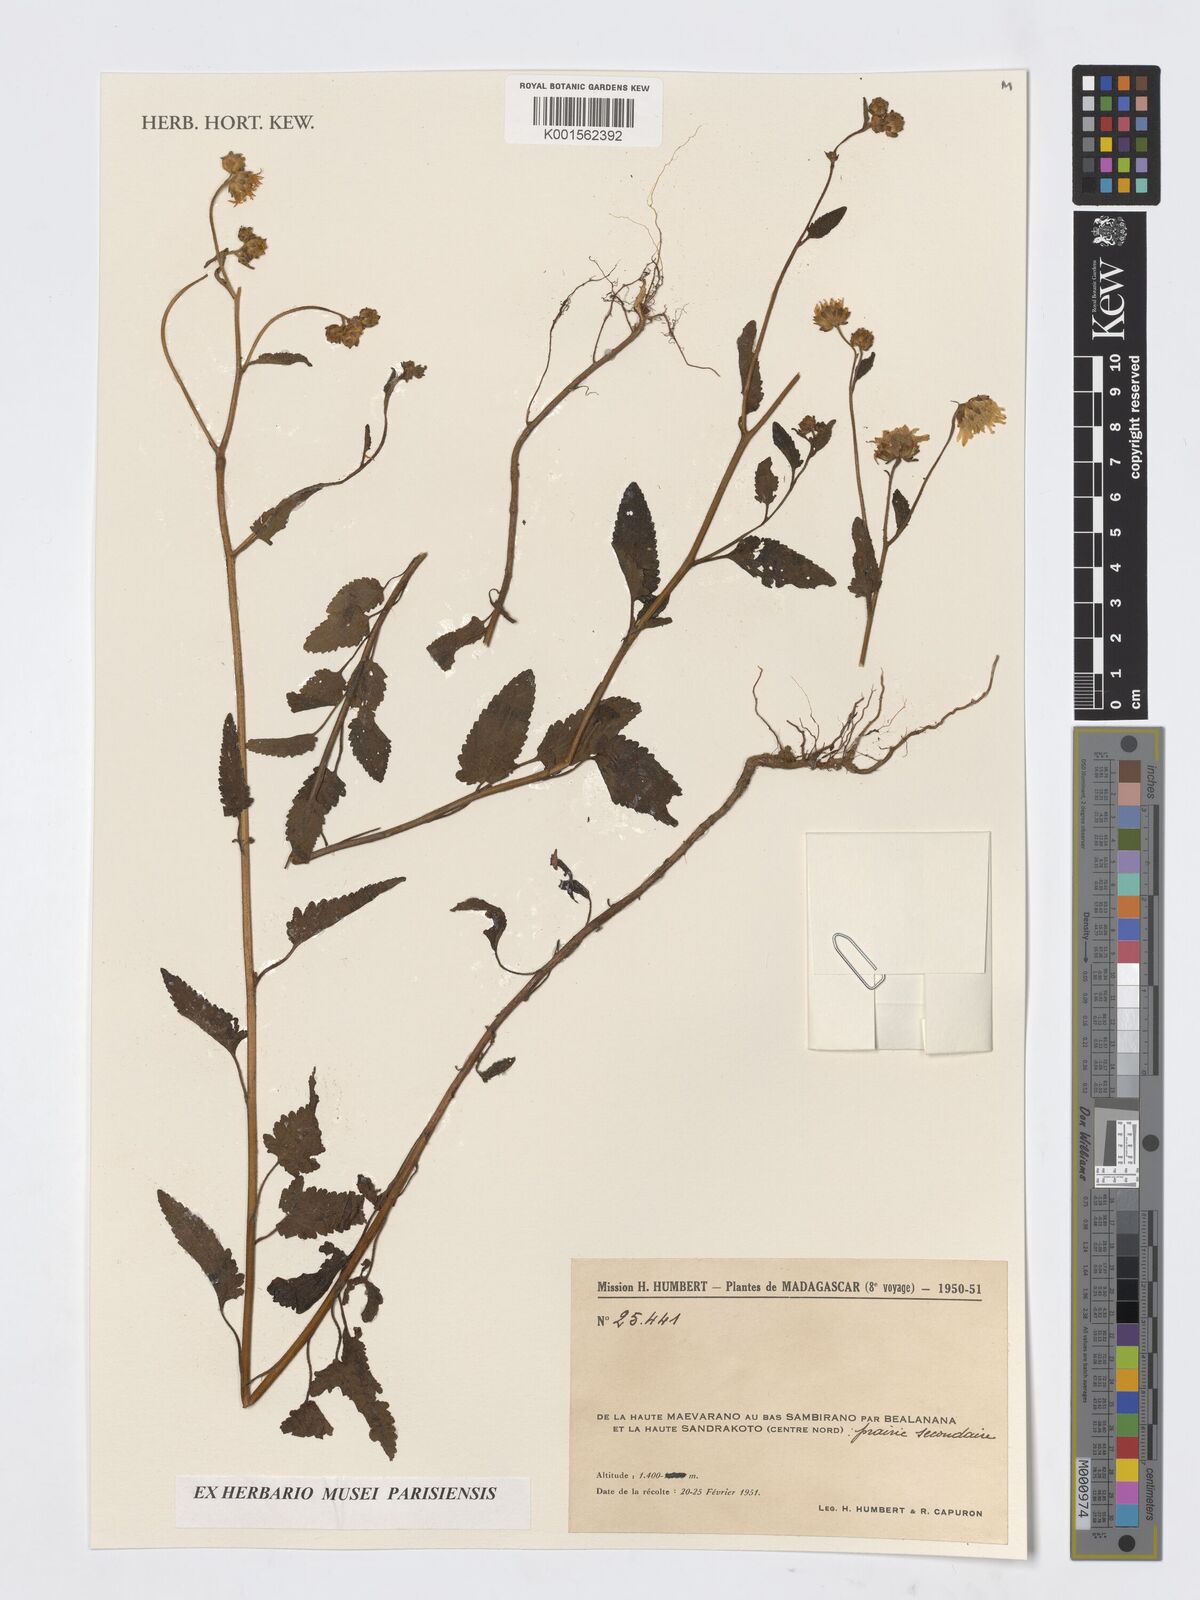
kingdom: Plantae
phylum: Tracheophyta
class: Magnoliopsida
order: Asterales
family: Asteraceae
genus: Vernonia
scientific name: Vernonia
